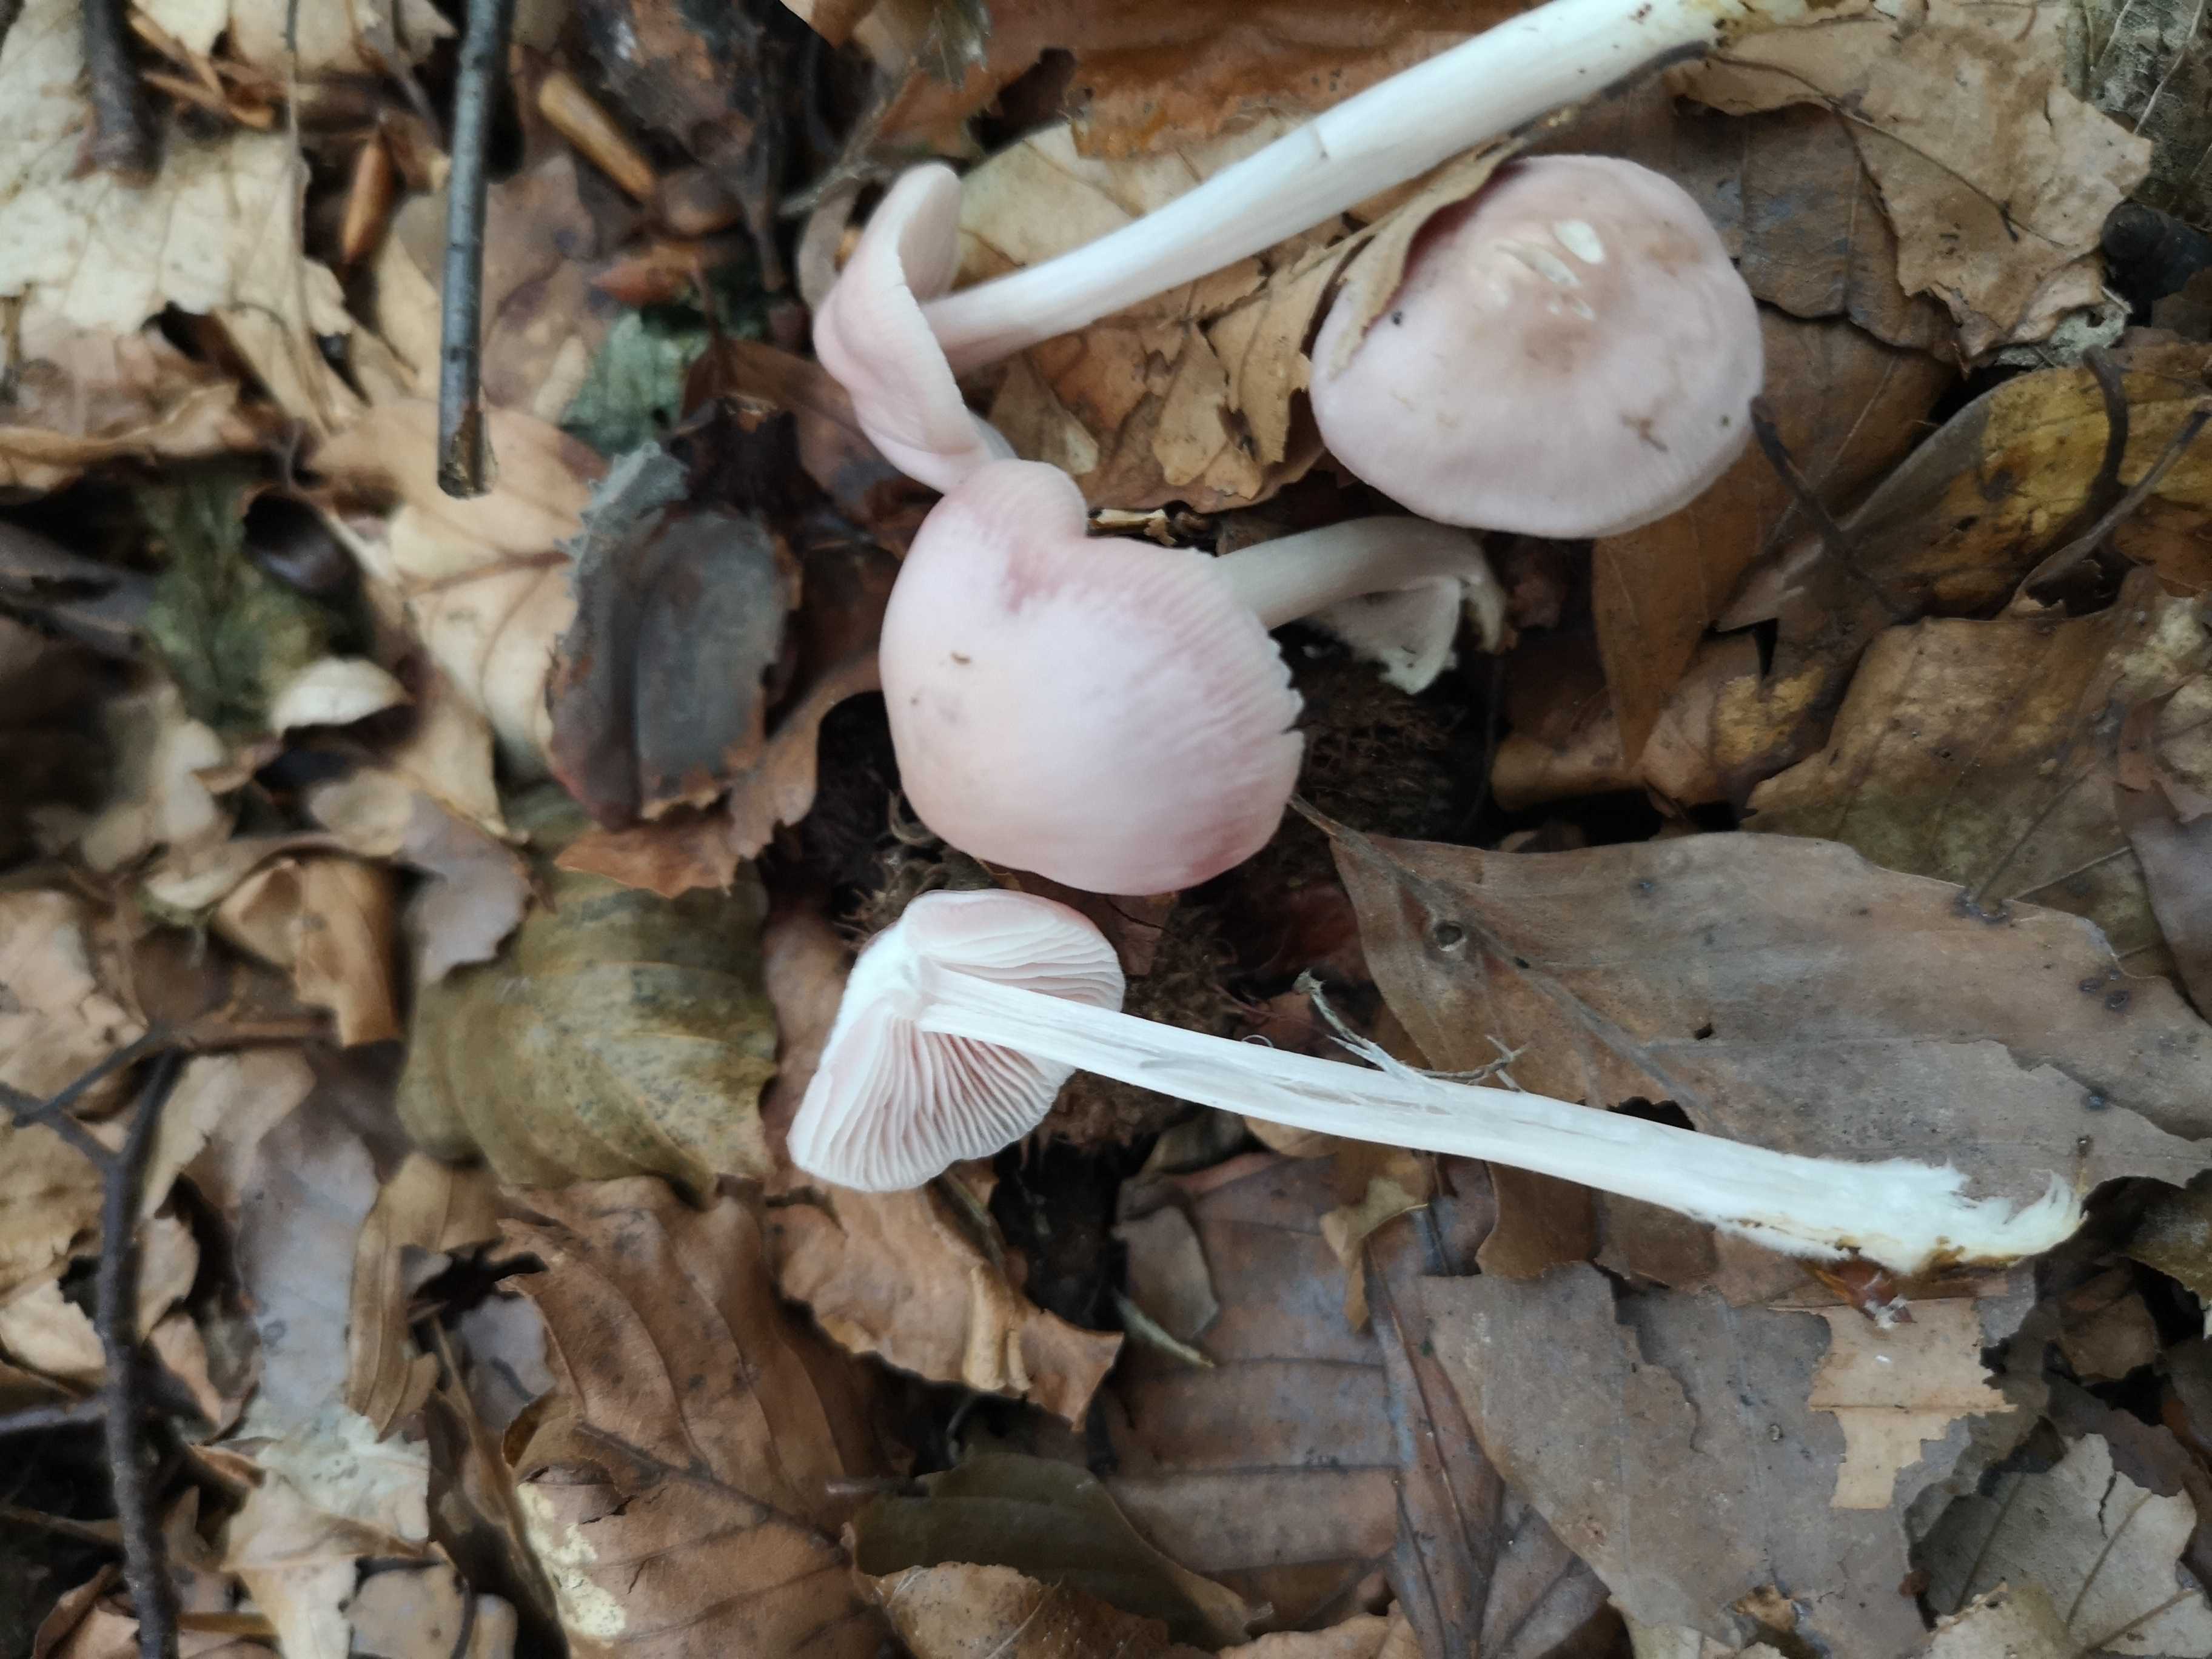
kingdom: Fungi
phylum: Basidiomycota
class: Agaricomycetes
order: Agaricales
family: Mycenaceae
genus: Mycena
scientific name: Mycena rosea
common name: rosa huesvamp
